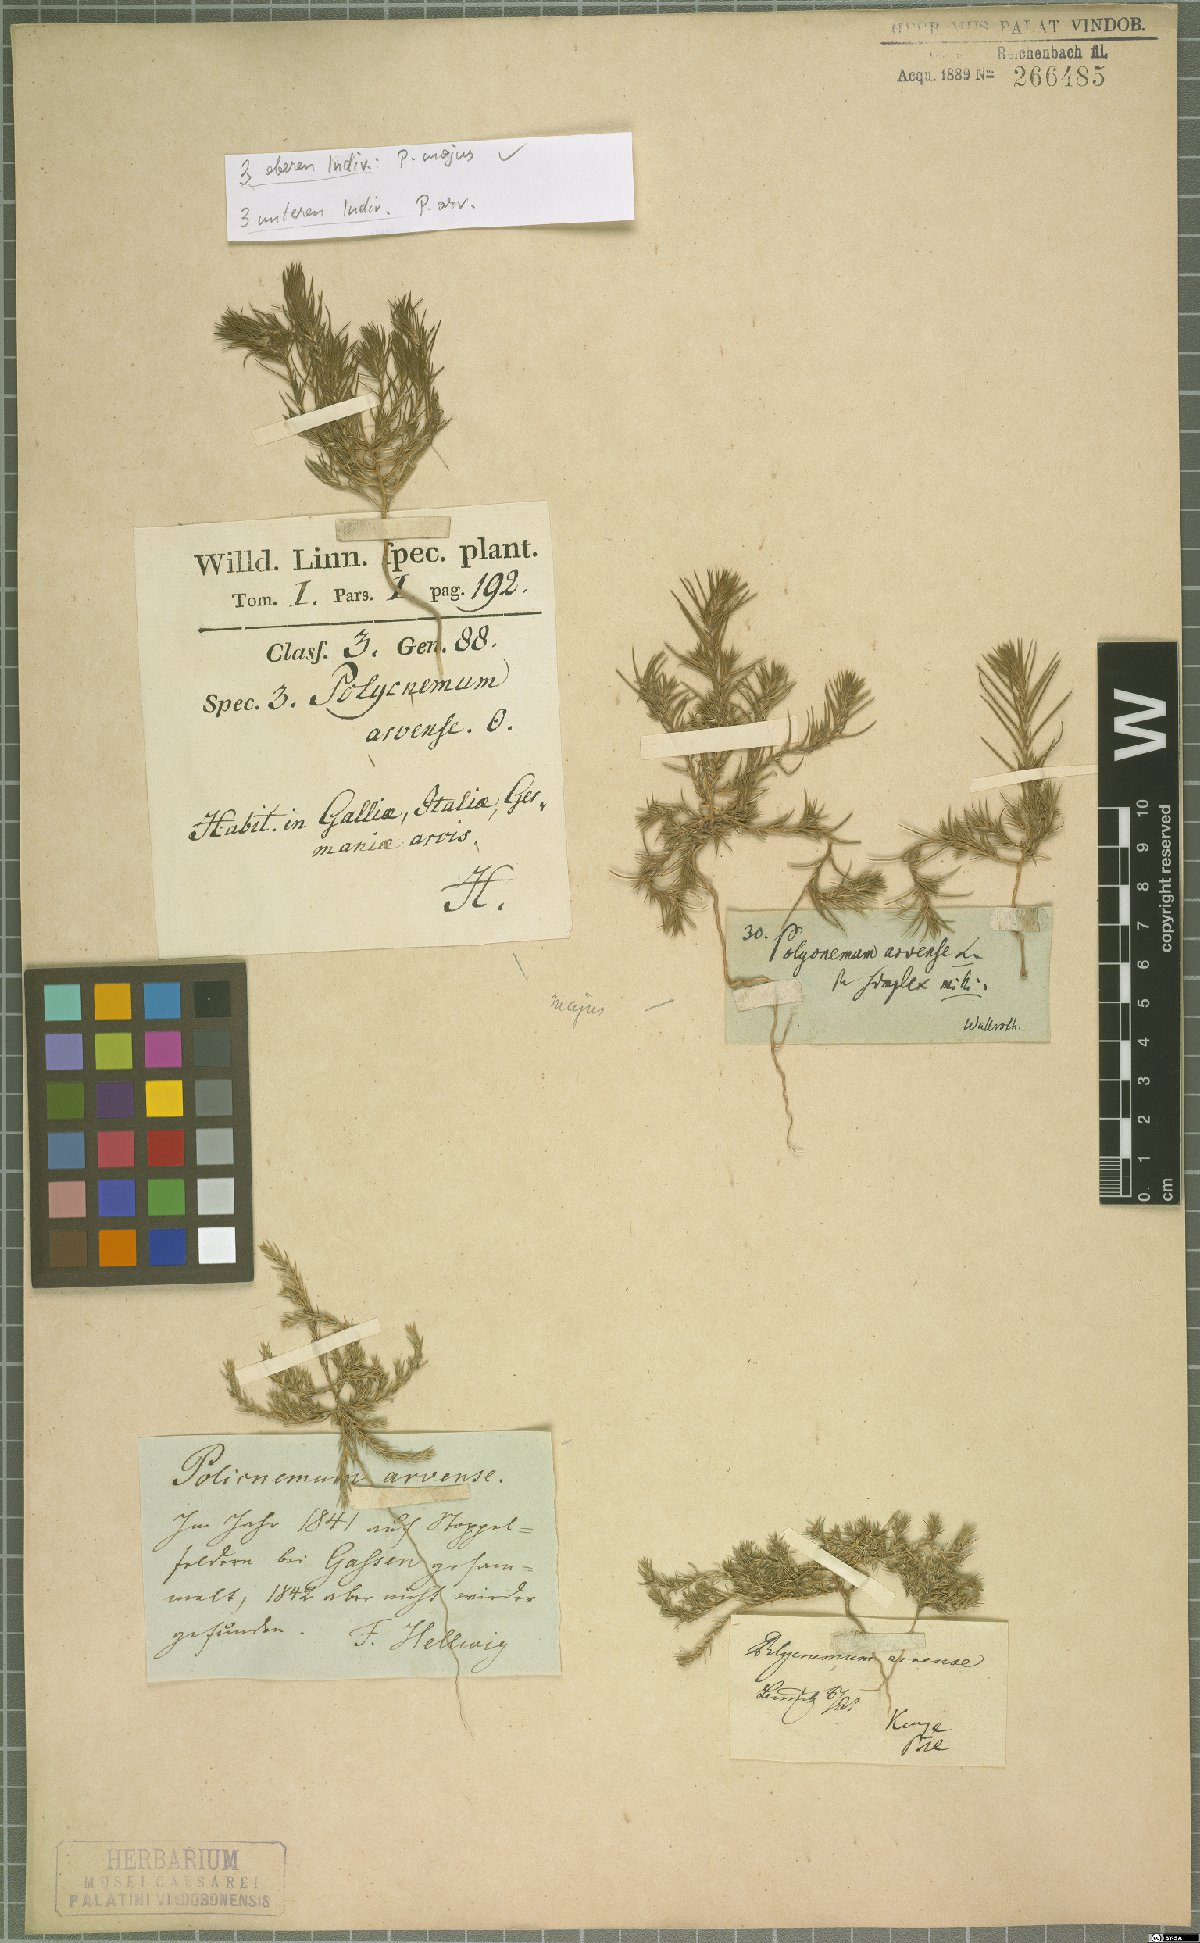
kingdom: Plantae
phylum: Tracheophyta
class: Magnoliopsida
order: Caryophyllales
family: Amaranthaceae
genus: Polycnemum
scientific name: Polycnemum majus
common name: Giant needleleaf
